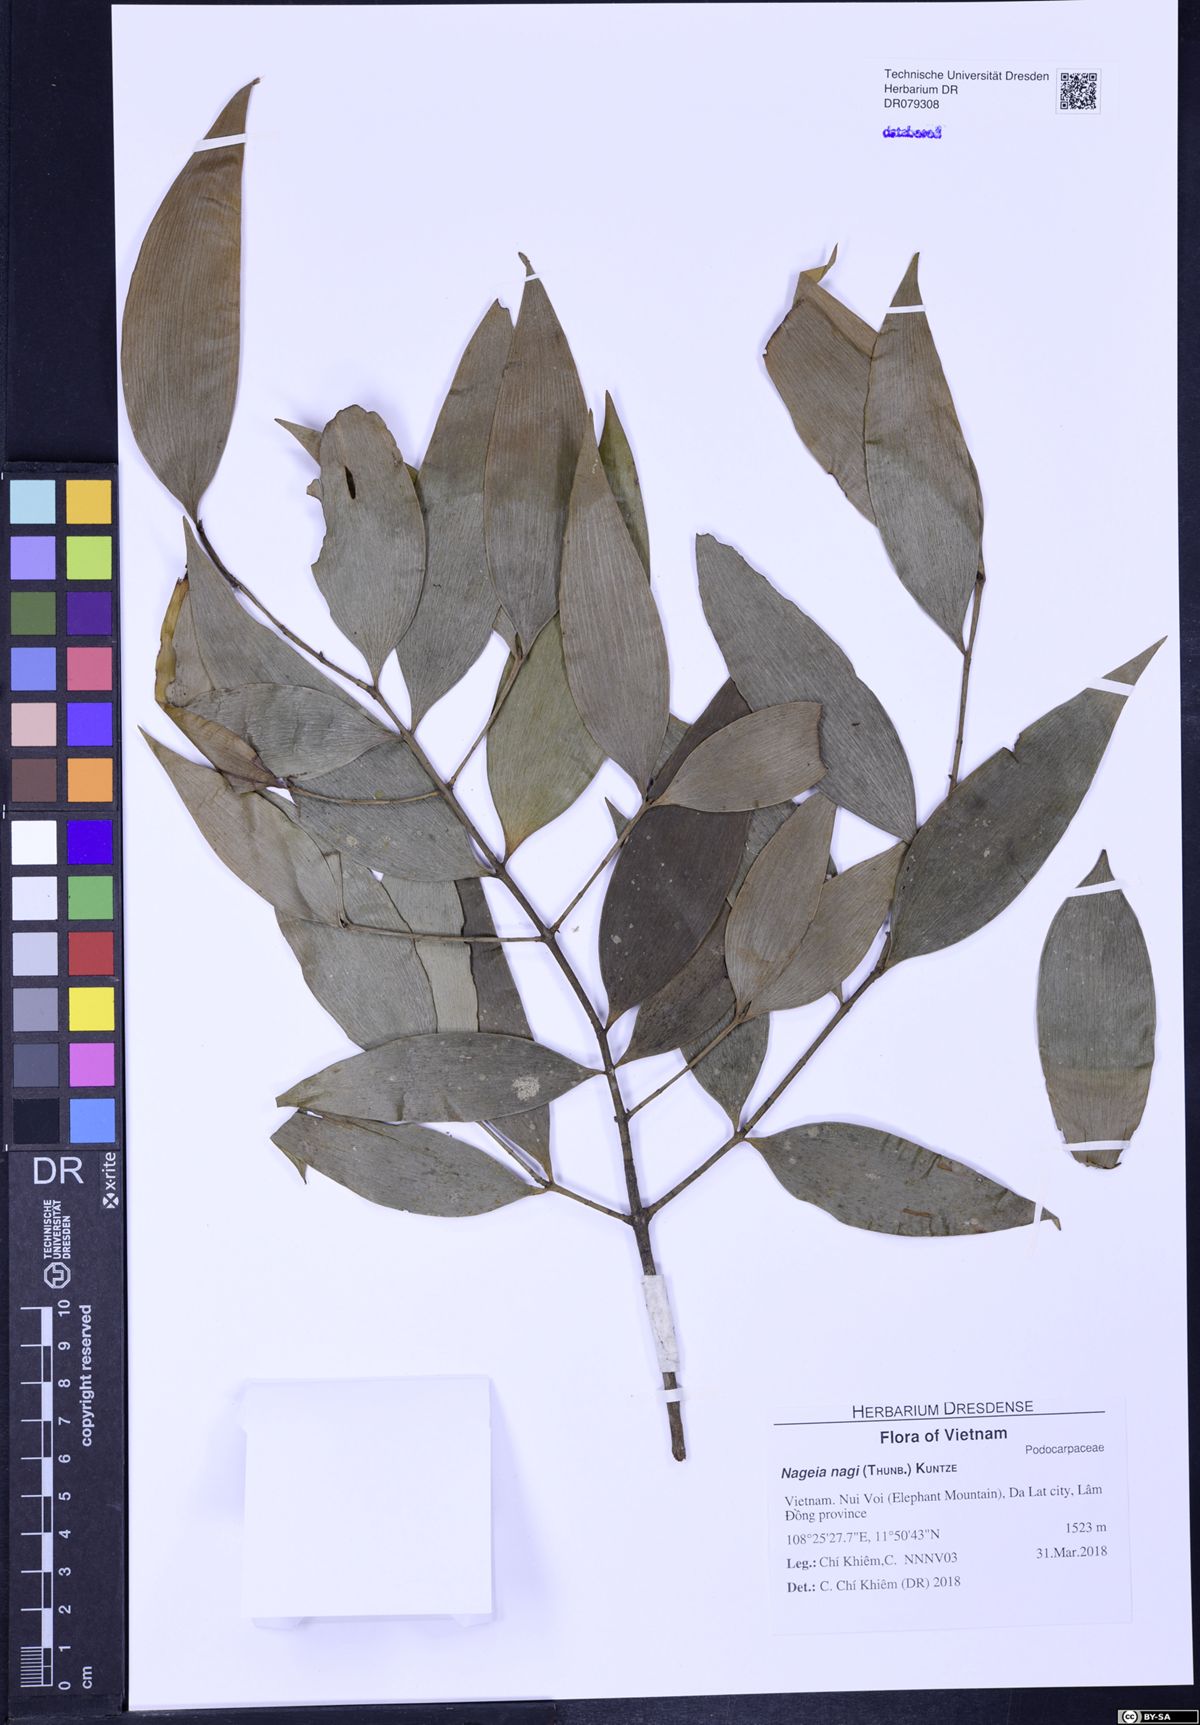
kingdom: Plantae
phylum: Tracheophyta
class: Pinopsida
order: Pinales
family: Podocarpaceae
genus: Nageia
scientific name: Nageia nagi
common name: Kaphal
